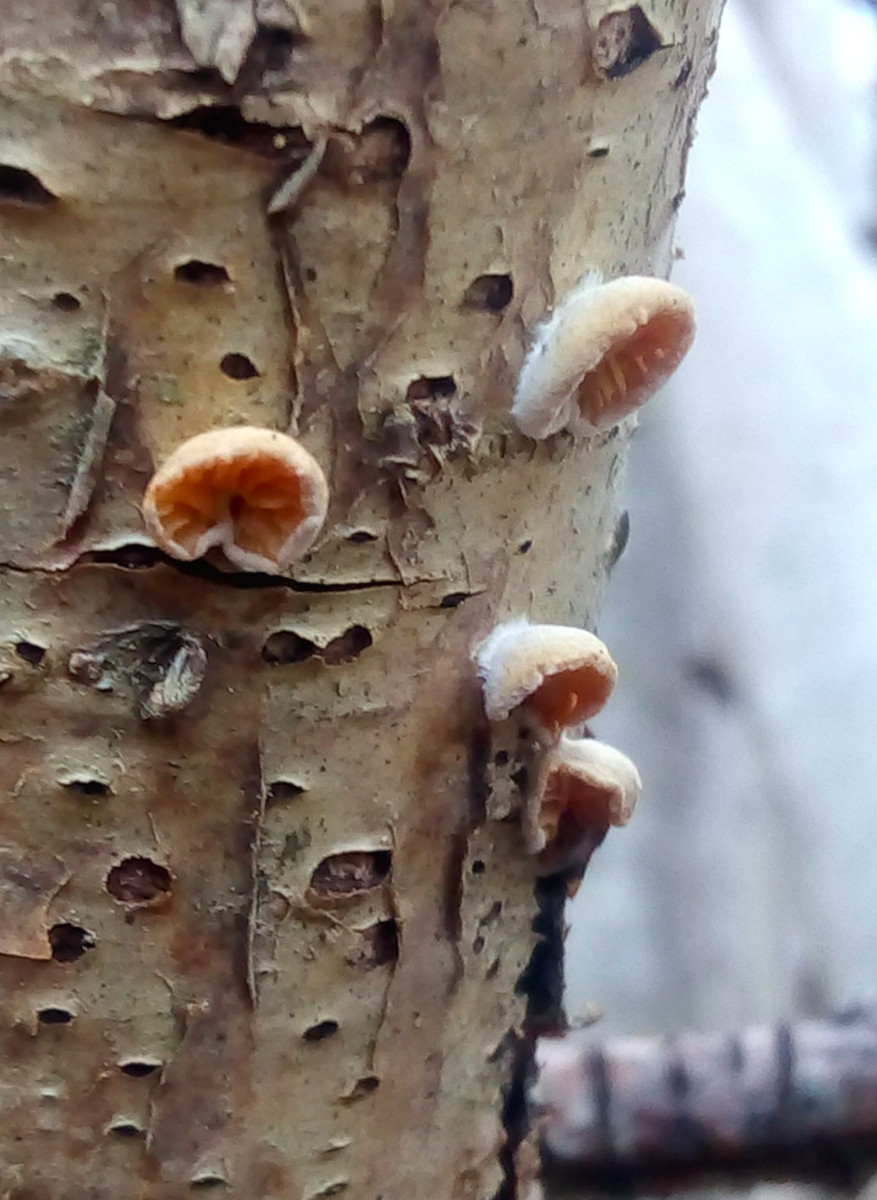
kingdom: Fungi
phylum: Basidiomycota
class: Agaricomycetes
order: Agaricales
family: Crepidotaceae
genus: Crepidotus
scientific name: Crepidotus cesatii
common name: almindelig muslingesvamp
